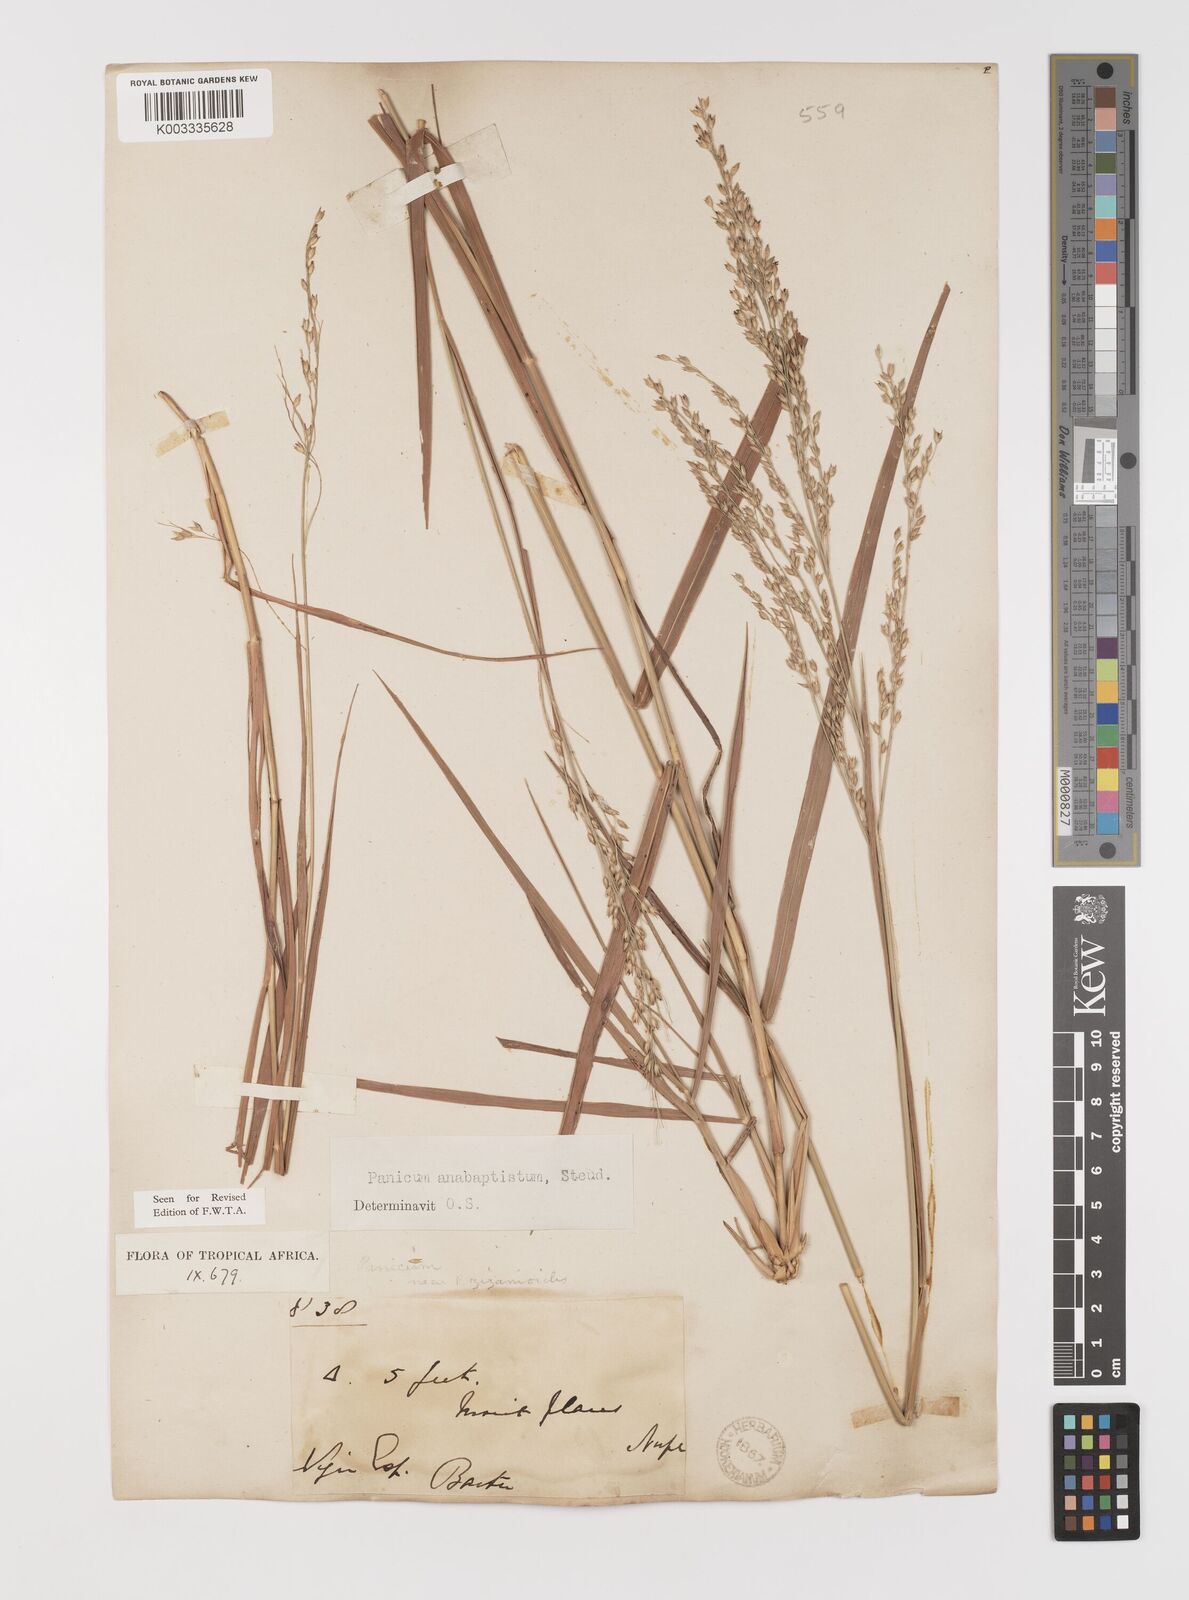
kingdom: Plantae
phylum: Tracheophyta
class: Liliopsida
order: Poales
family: Poaceae
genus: Panicum
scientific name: Panicum anabaptistum
